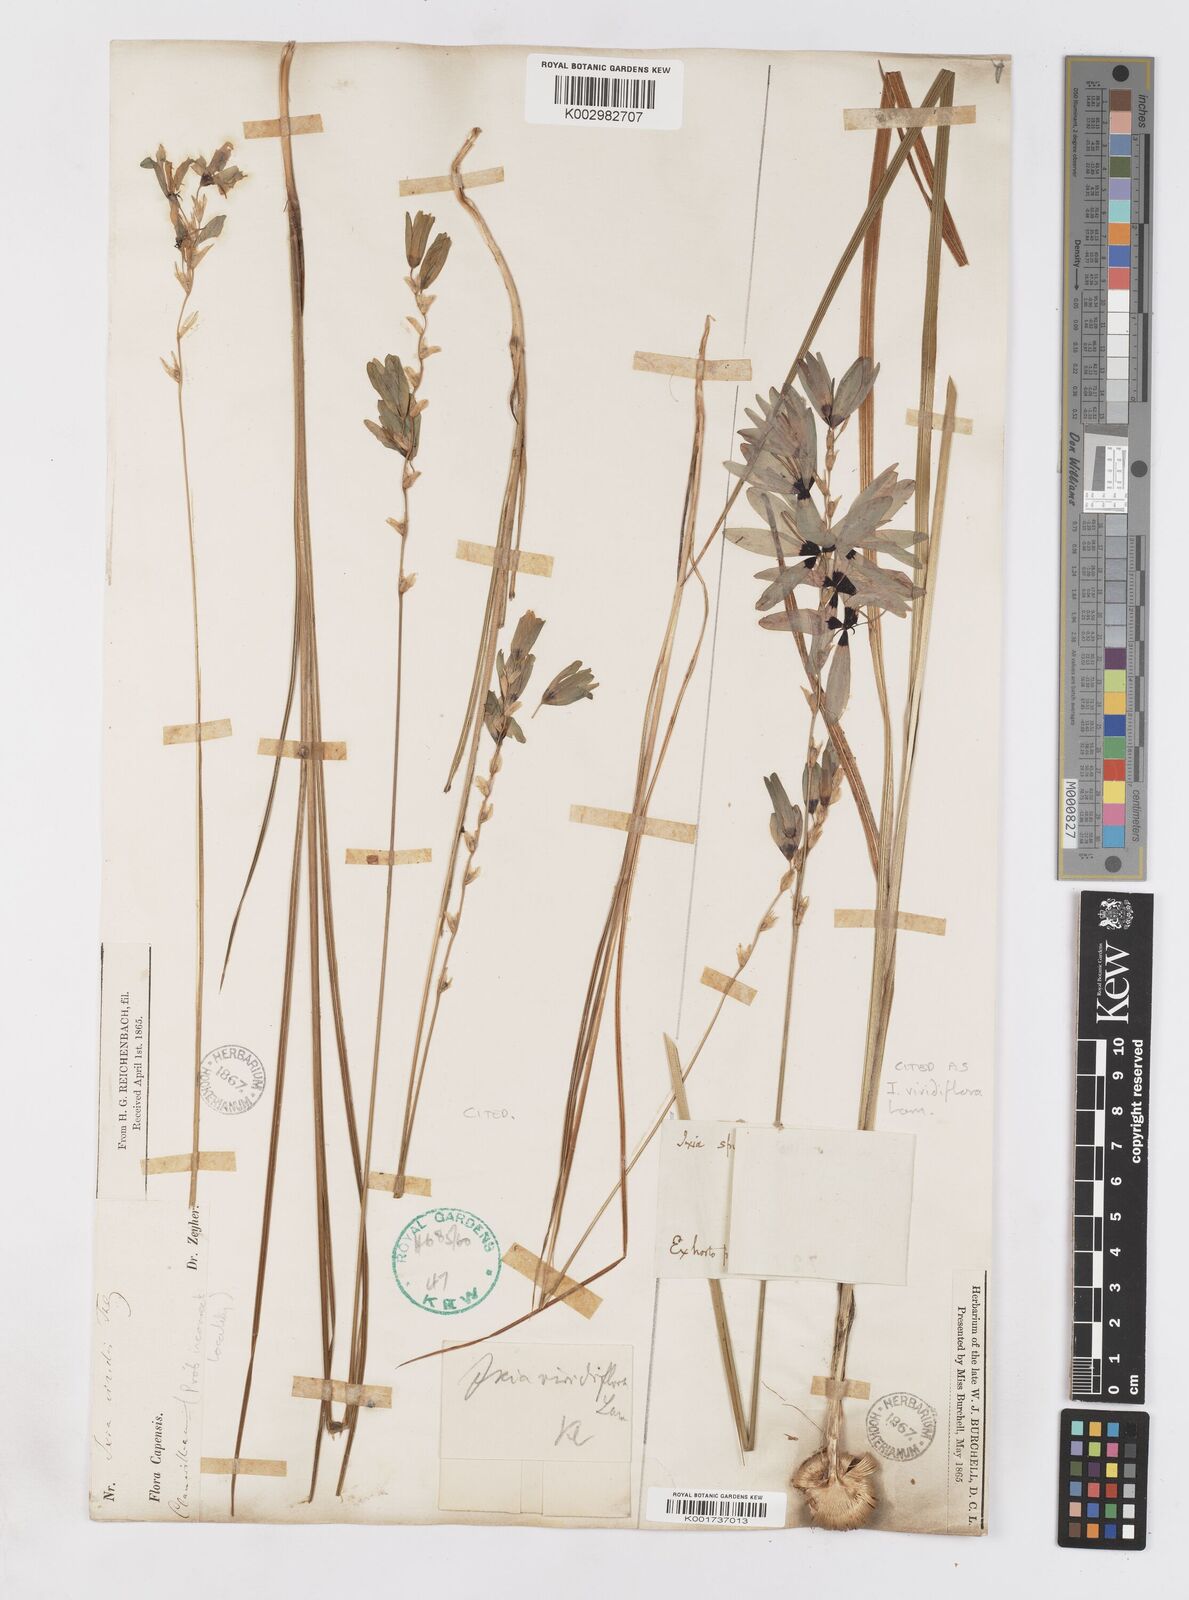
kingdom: Plantae
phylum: Tracheophyta
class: Liliopsida
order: Asparagales
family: Iridaceae
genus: Ixia
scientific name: Ixia viridiflora
